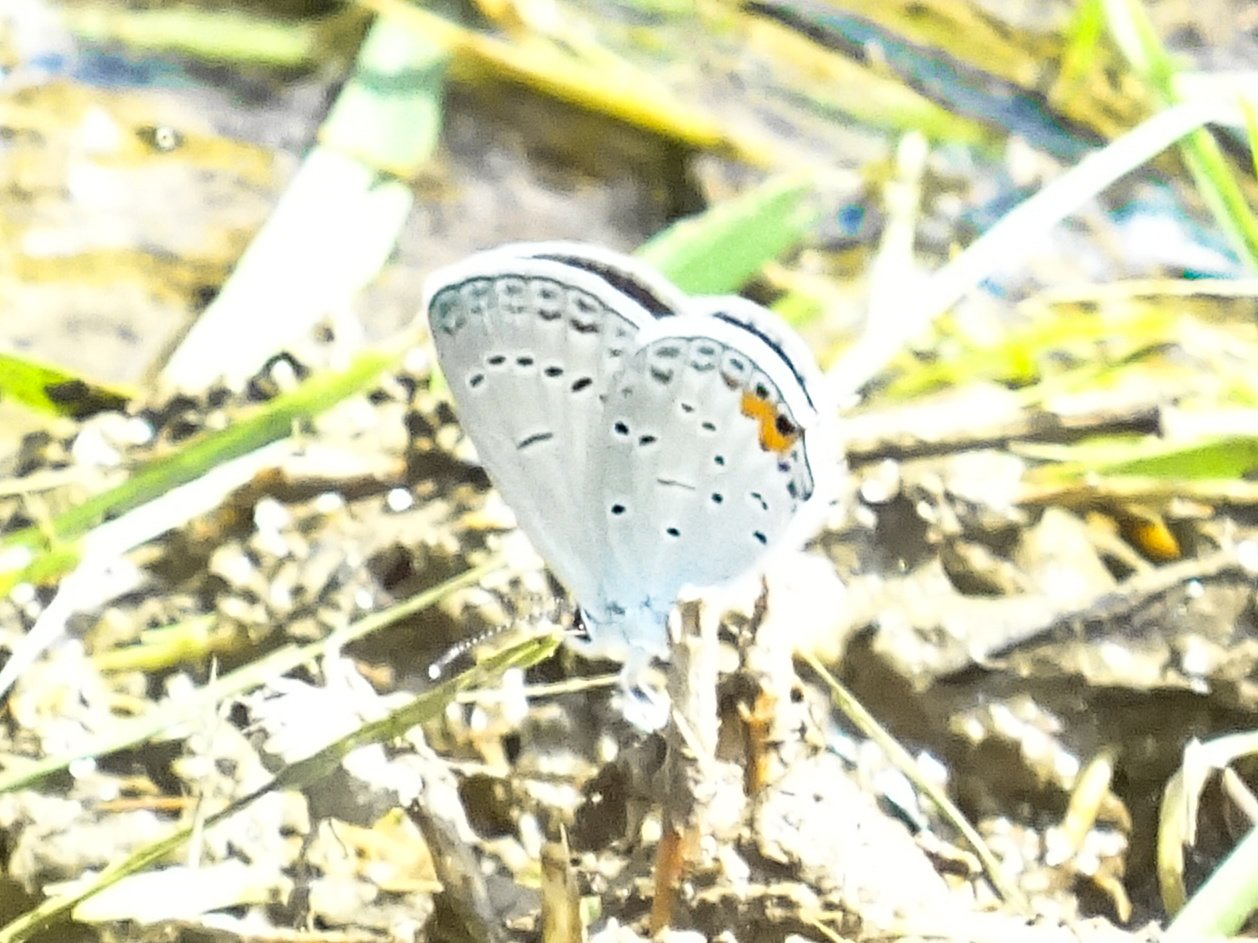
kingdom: Animalia
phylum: Arthropoda
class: Insecta
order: Lepidoptera
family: Lycaenidae
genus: Elkalyce
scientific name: Elkalyce comyntas
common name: Eastern Tailed-Blue
